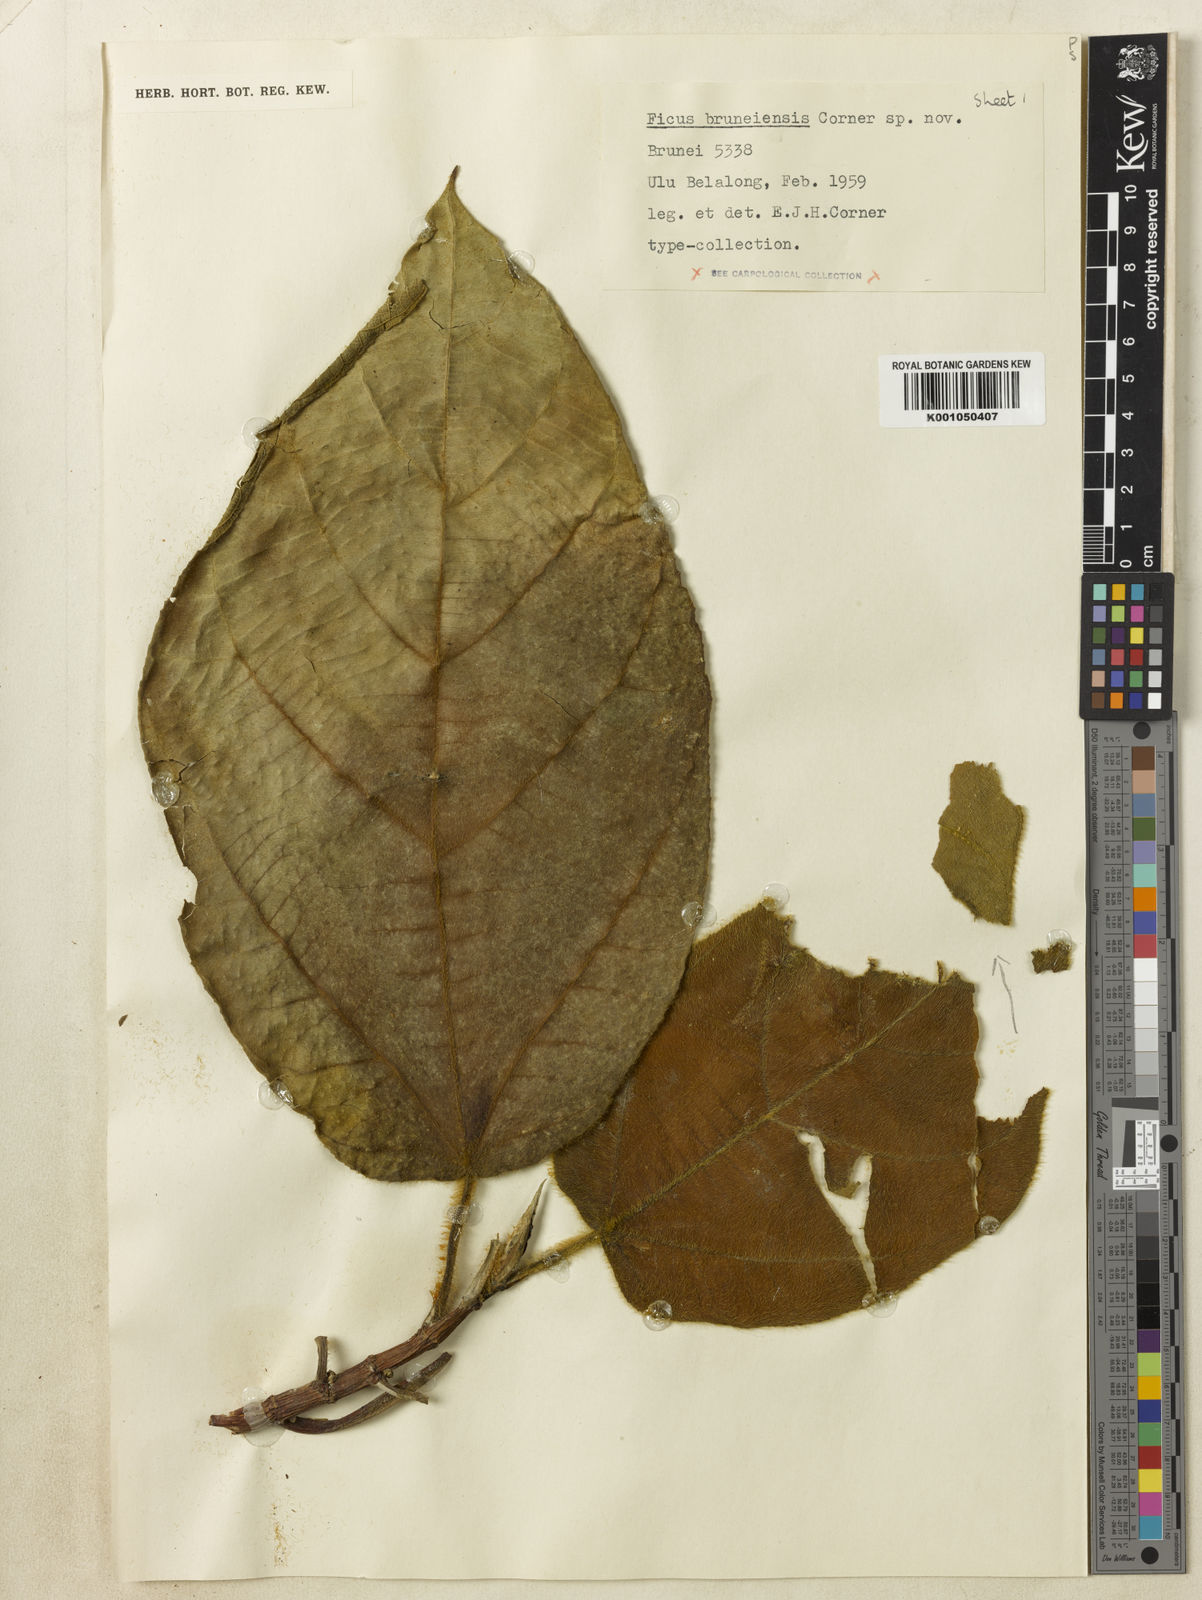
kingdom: Plantae
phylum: Tracheophyta
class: Magnoliopsida
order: Rosales
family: Moraceae
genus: Ficus
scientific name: Ficus bruneiensis
